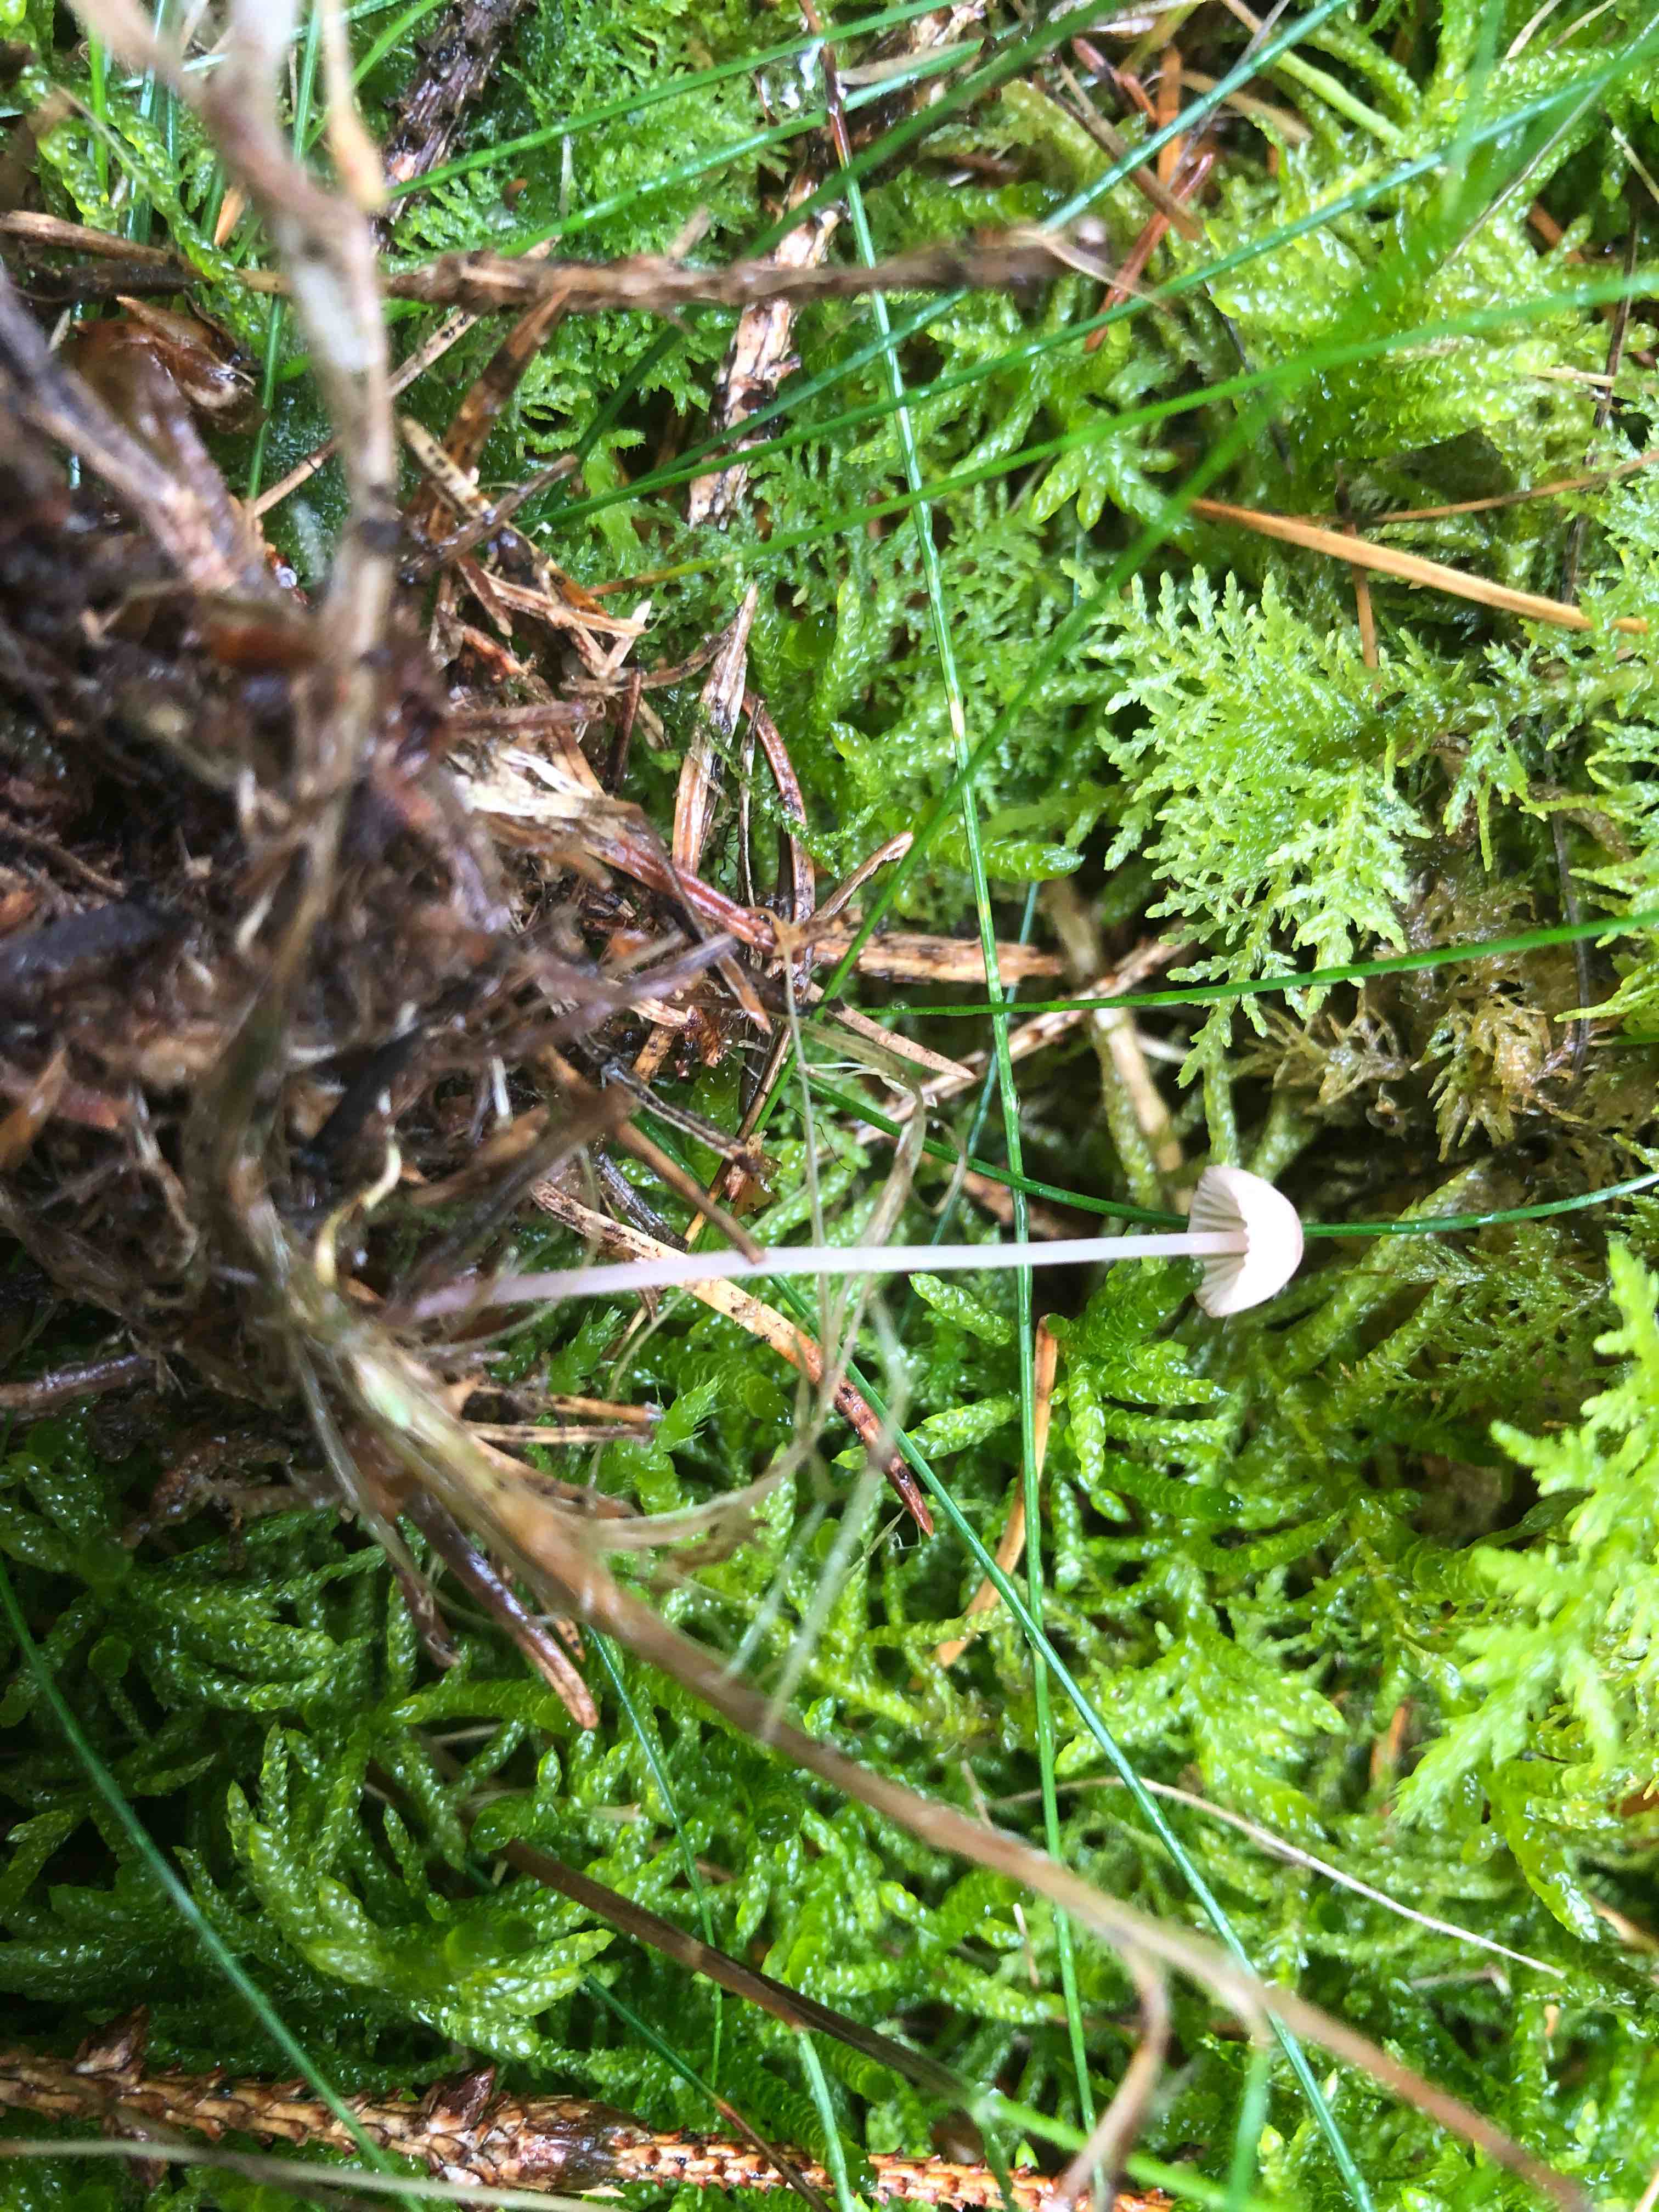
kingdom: Fungi
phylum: Basidiomycota
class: Agaricomycetes
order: Agaricales
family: Mycenaceae
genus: Mycena
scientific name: Mycena sanguinolenta
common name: rødmælket huesvamp
